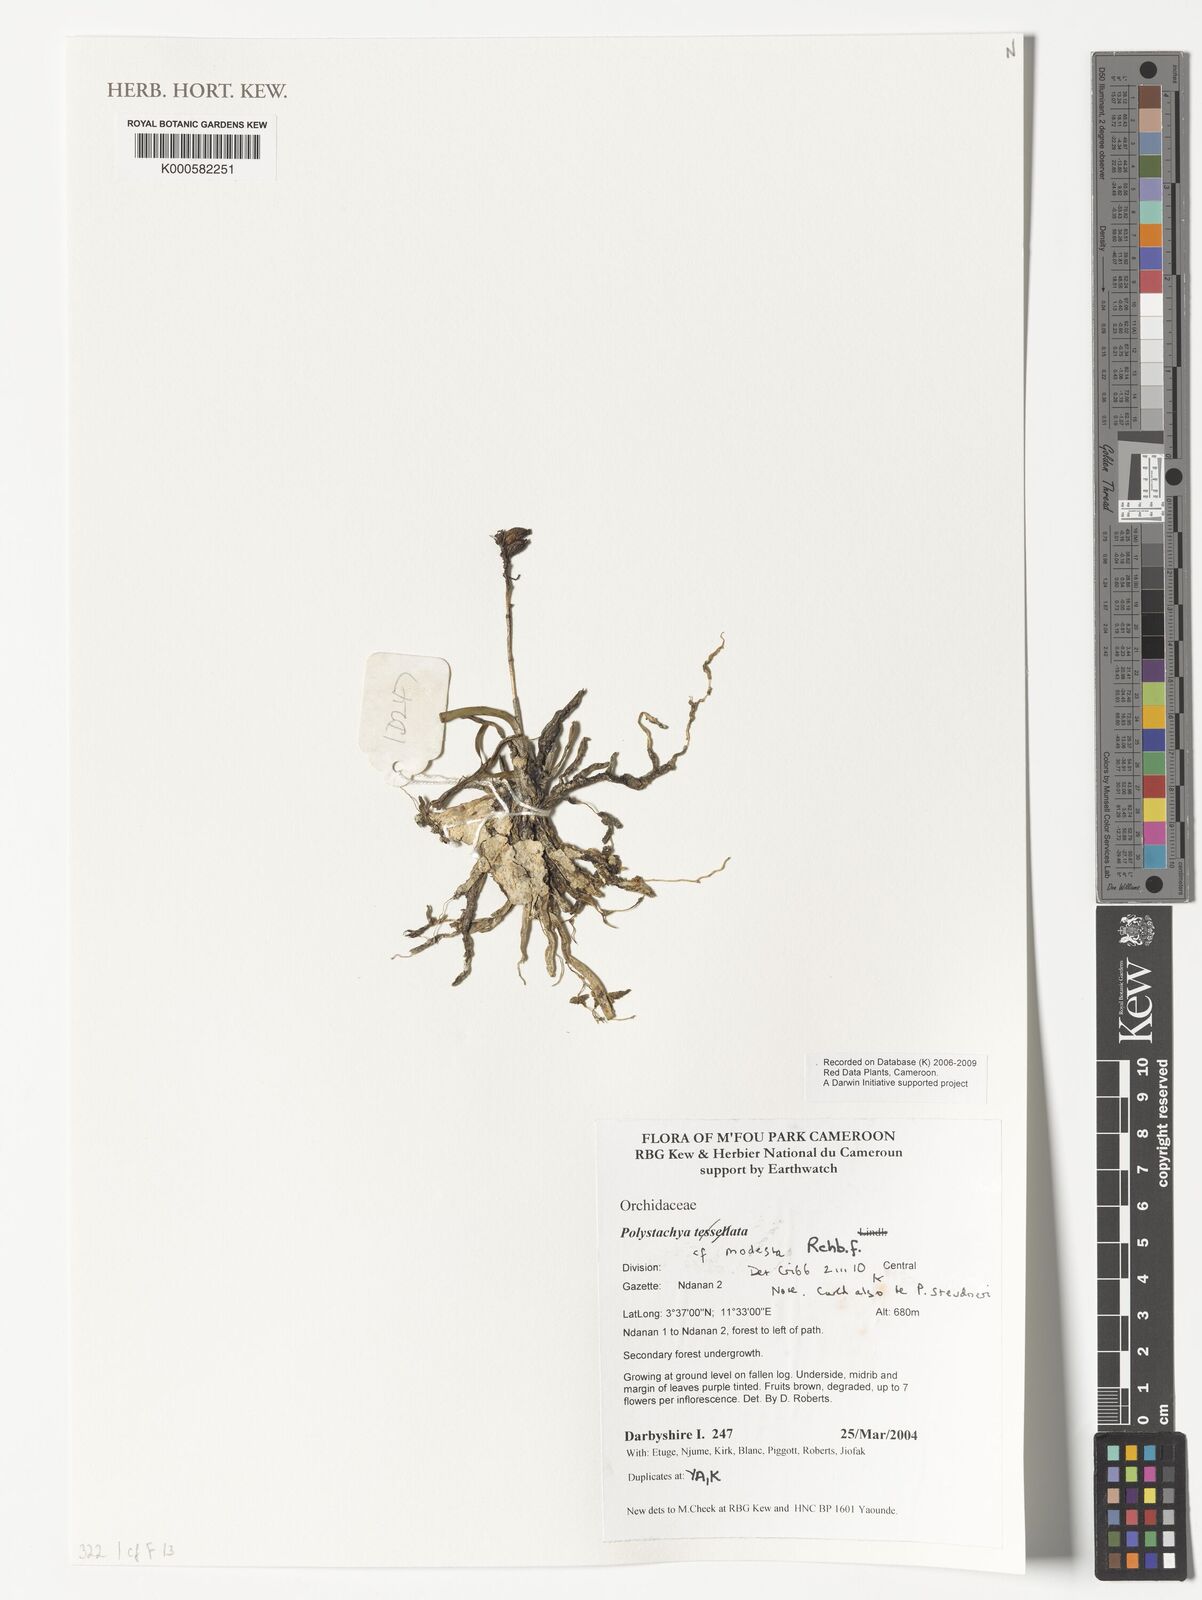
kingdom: Plantae
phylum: Tracheophyta
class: Liliopsida
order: Asparagales
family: Orchidaceae
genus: Polystachya
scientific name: Polystachya modesta
